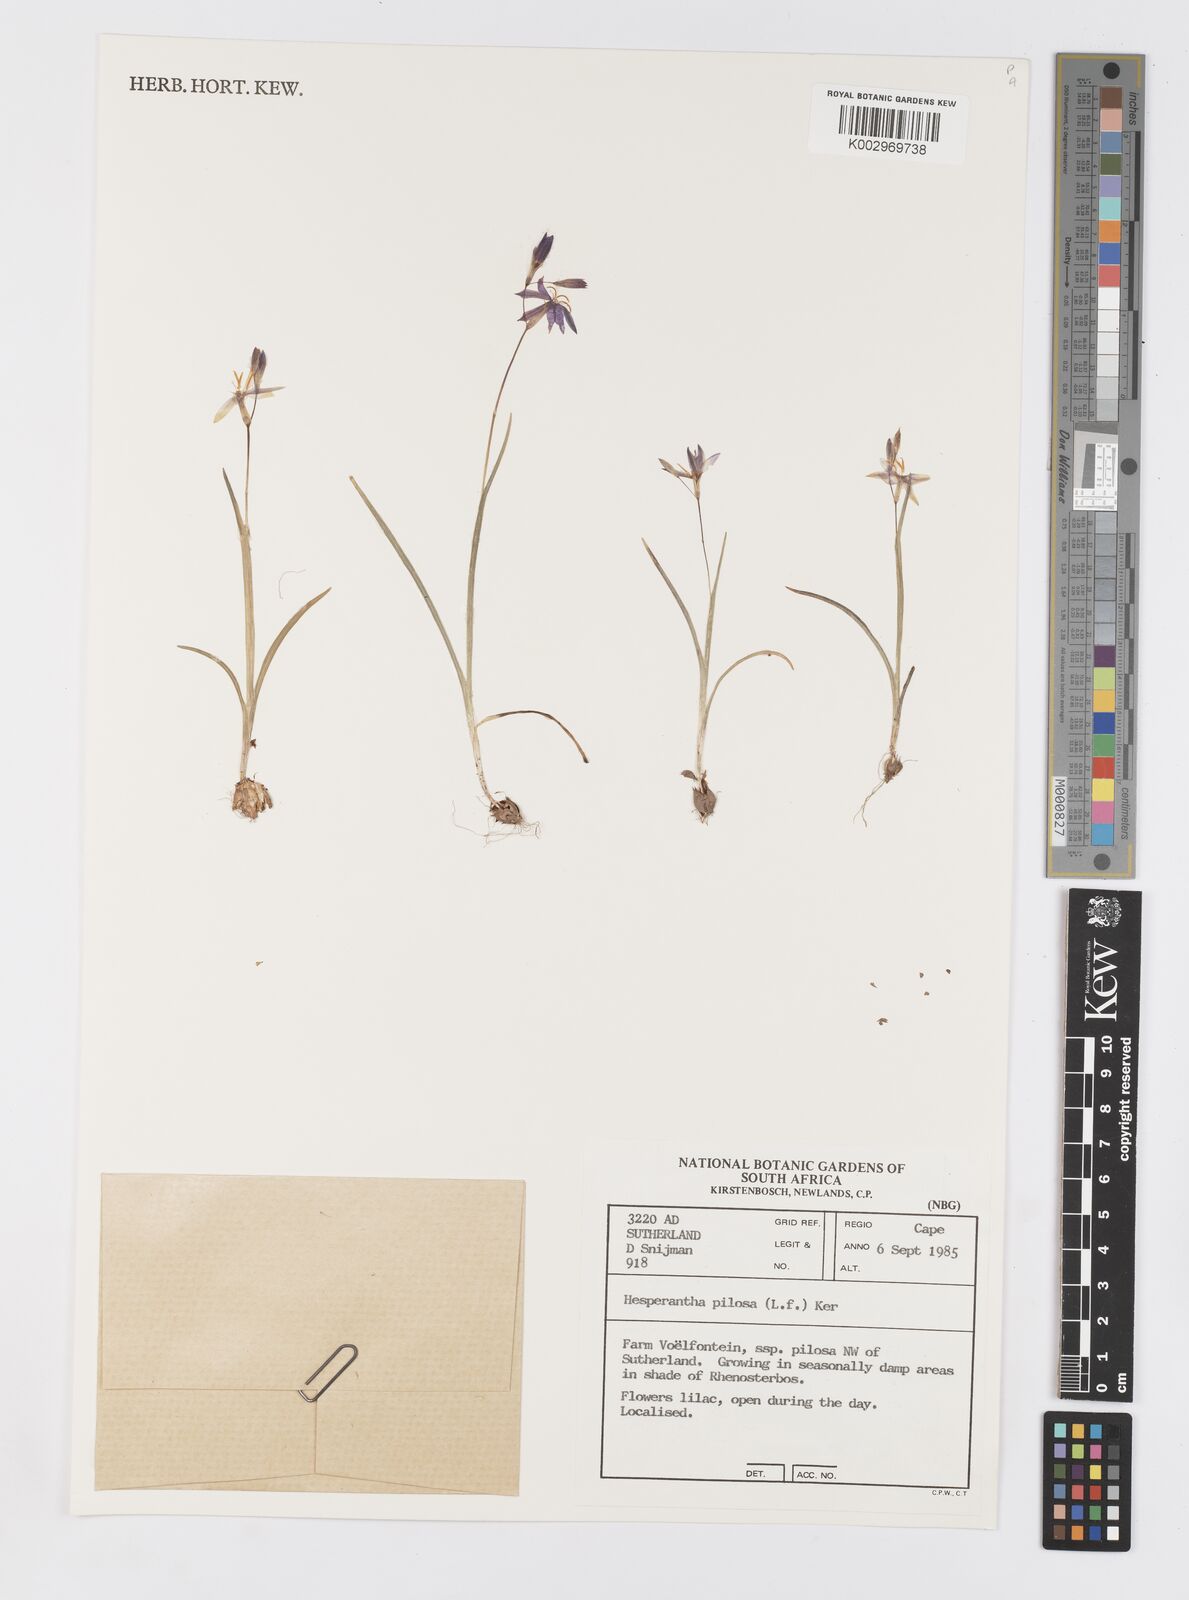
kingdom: Plantae
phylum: Tracheophyta
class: Liliopsida
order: Asparagales
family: Iridaceae
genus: Hesperantha
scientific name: Hesperantha pilosa
